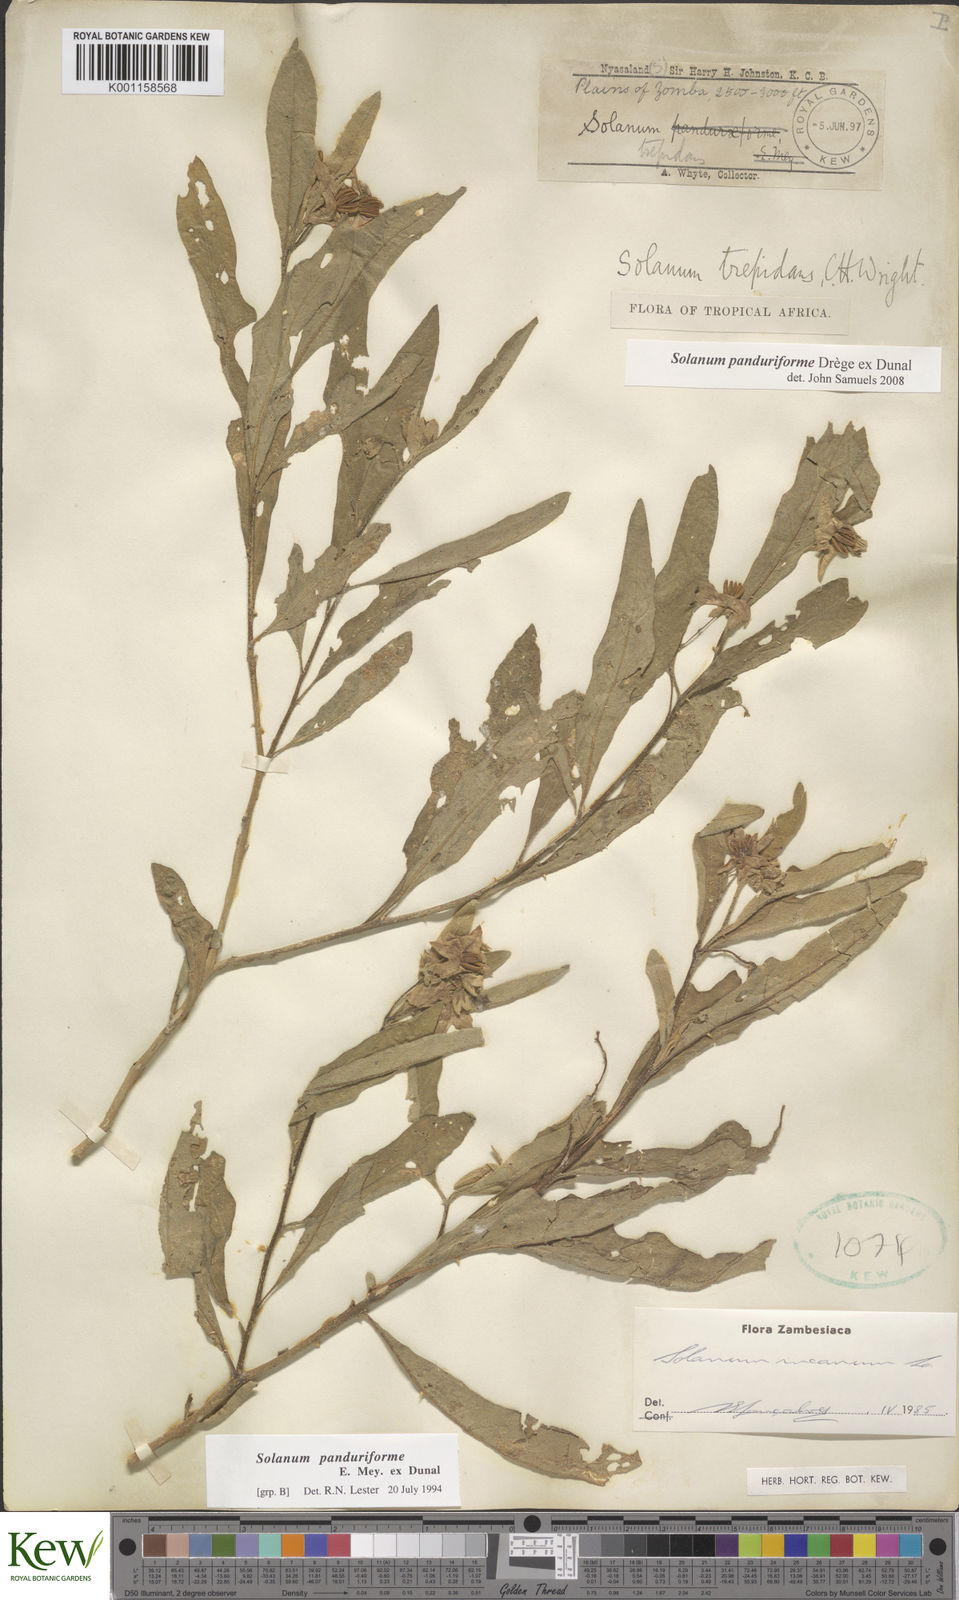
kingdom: Plantae
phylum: Tracheophyta
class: Magnoliopsida
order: Solanales
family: Solanaceae
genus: Solanum
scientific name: Solanum campylacanthum
